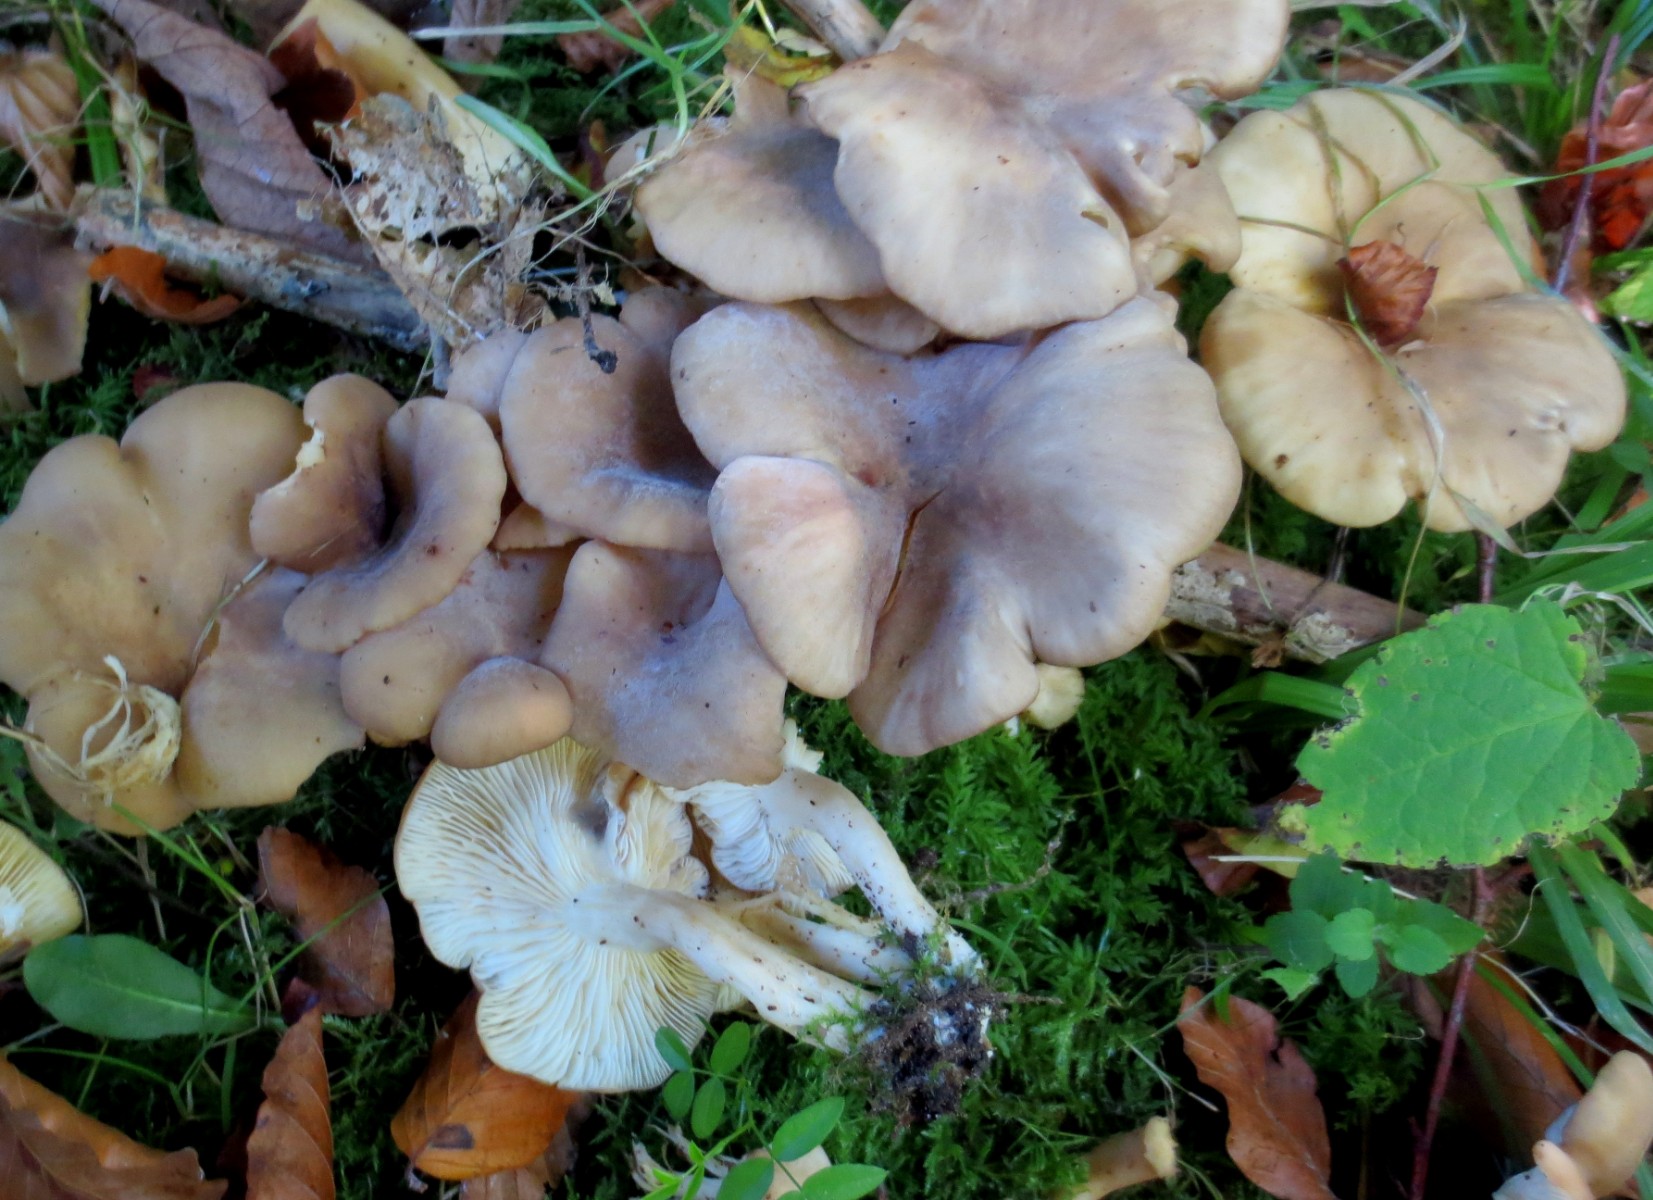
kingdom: Fungi
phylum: Basidiomycota
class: Agaricomycetes
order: Agaricales
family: Lyophyllaceae
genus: Lyophyllum
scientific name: Lyophyllum decastes
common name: røggrå gråblad
